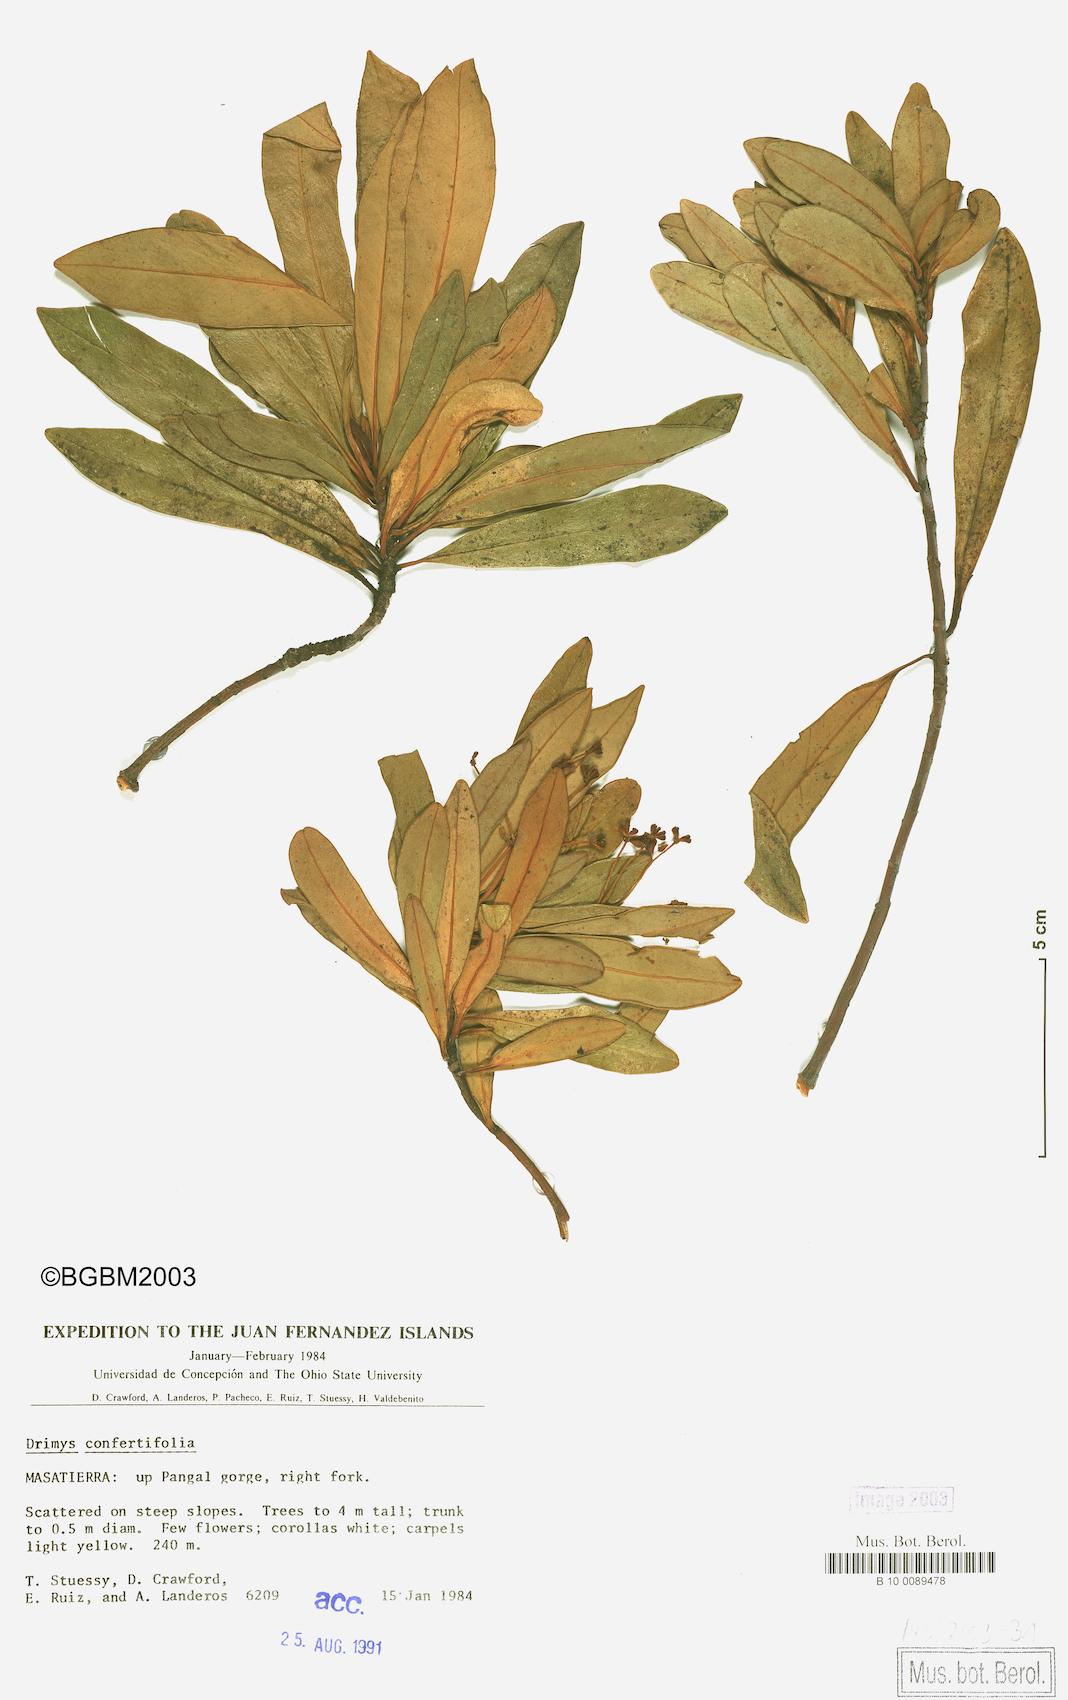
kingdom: Plantae
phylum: Tracheophyta
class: Magnoliopsida
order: Canellales
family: Winteraceae
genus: Drimys
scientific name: Drimys confertiflora
